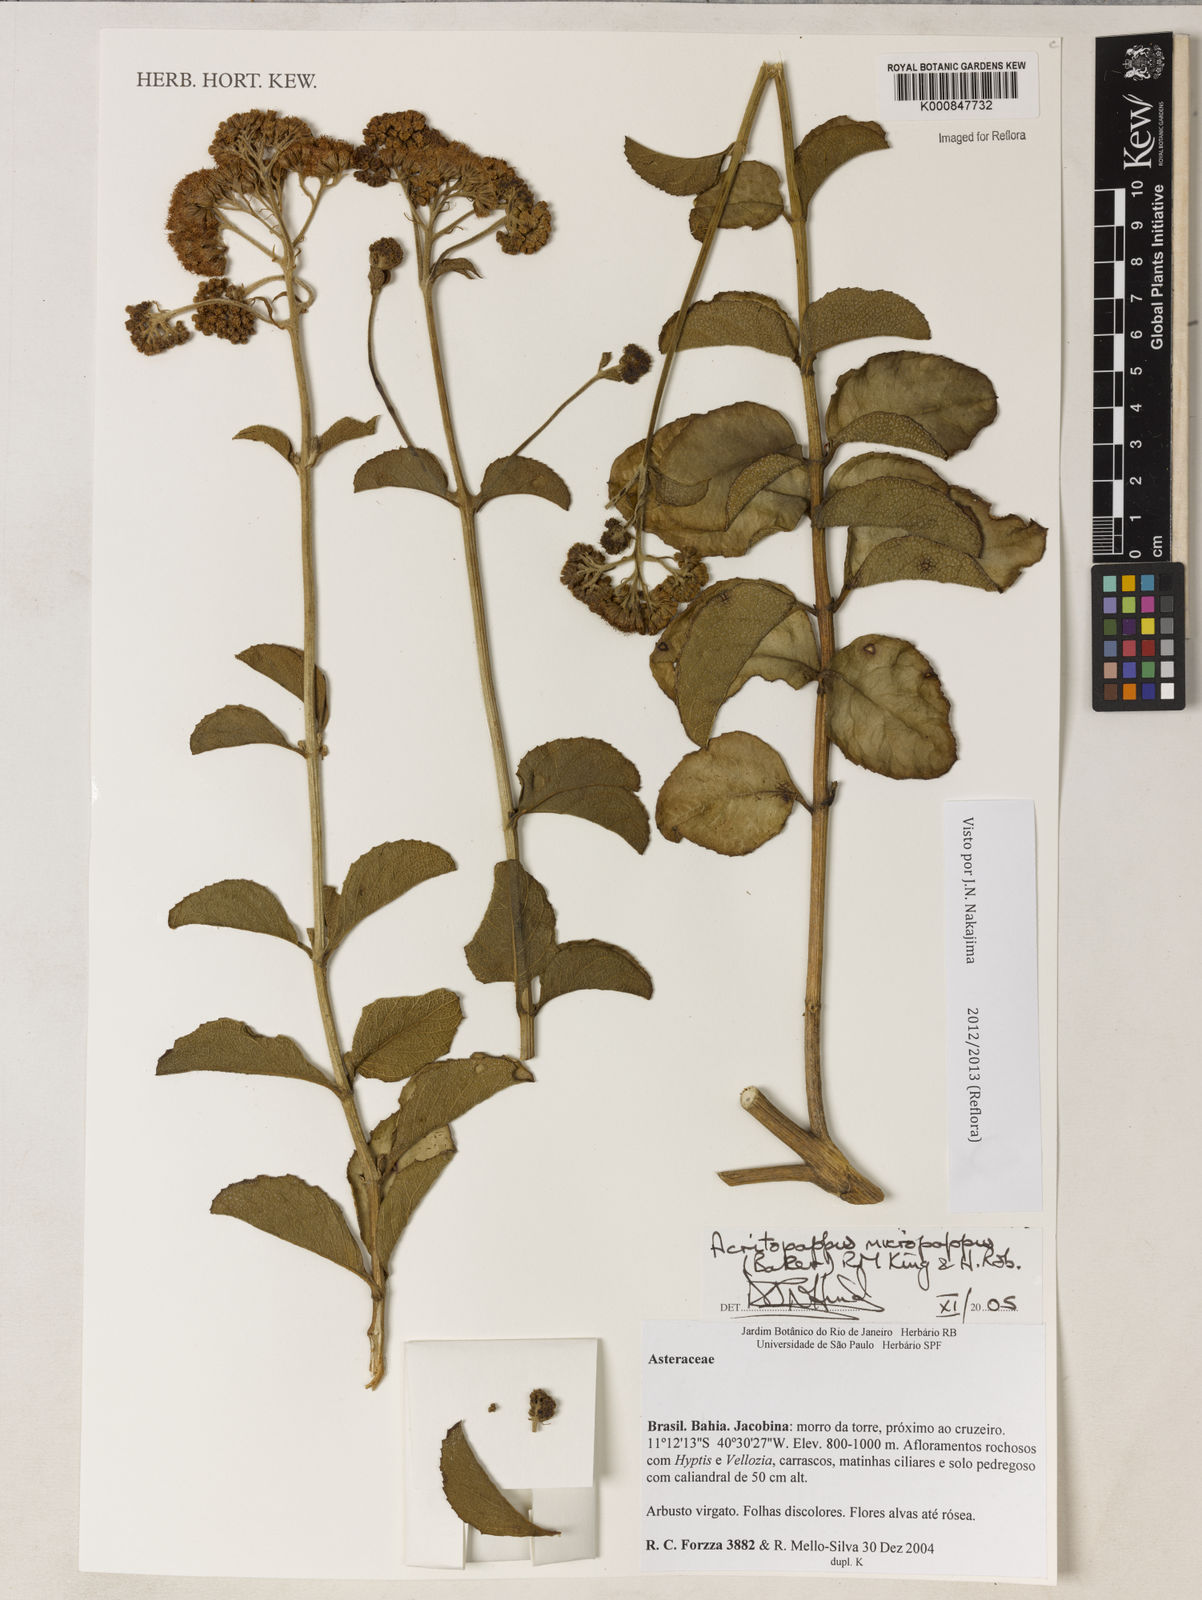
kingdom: Plantae
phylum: Tracheophyta
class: Magnoliopsida
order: Asterales
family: Asteraceae
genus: Acritopappus
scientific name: Acritopappus micropappus
